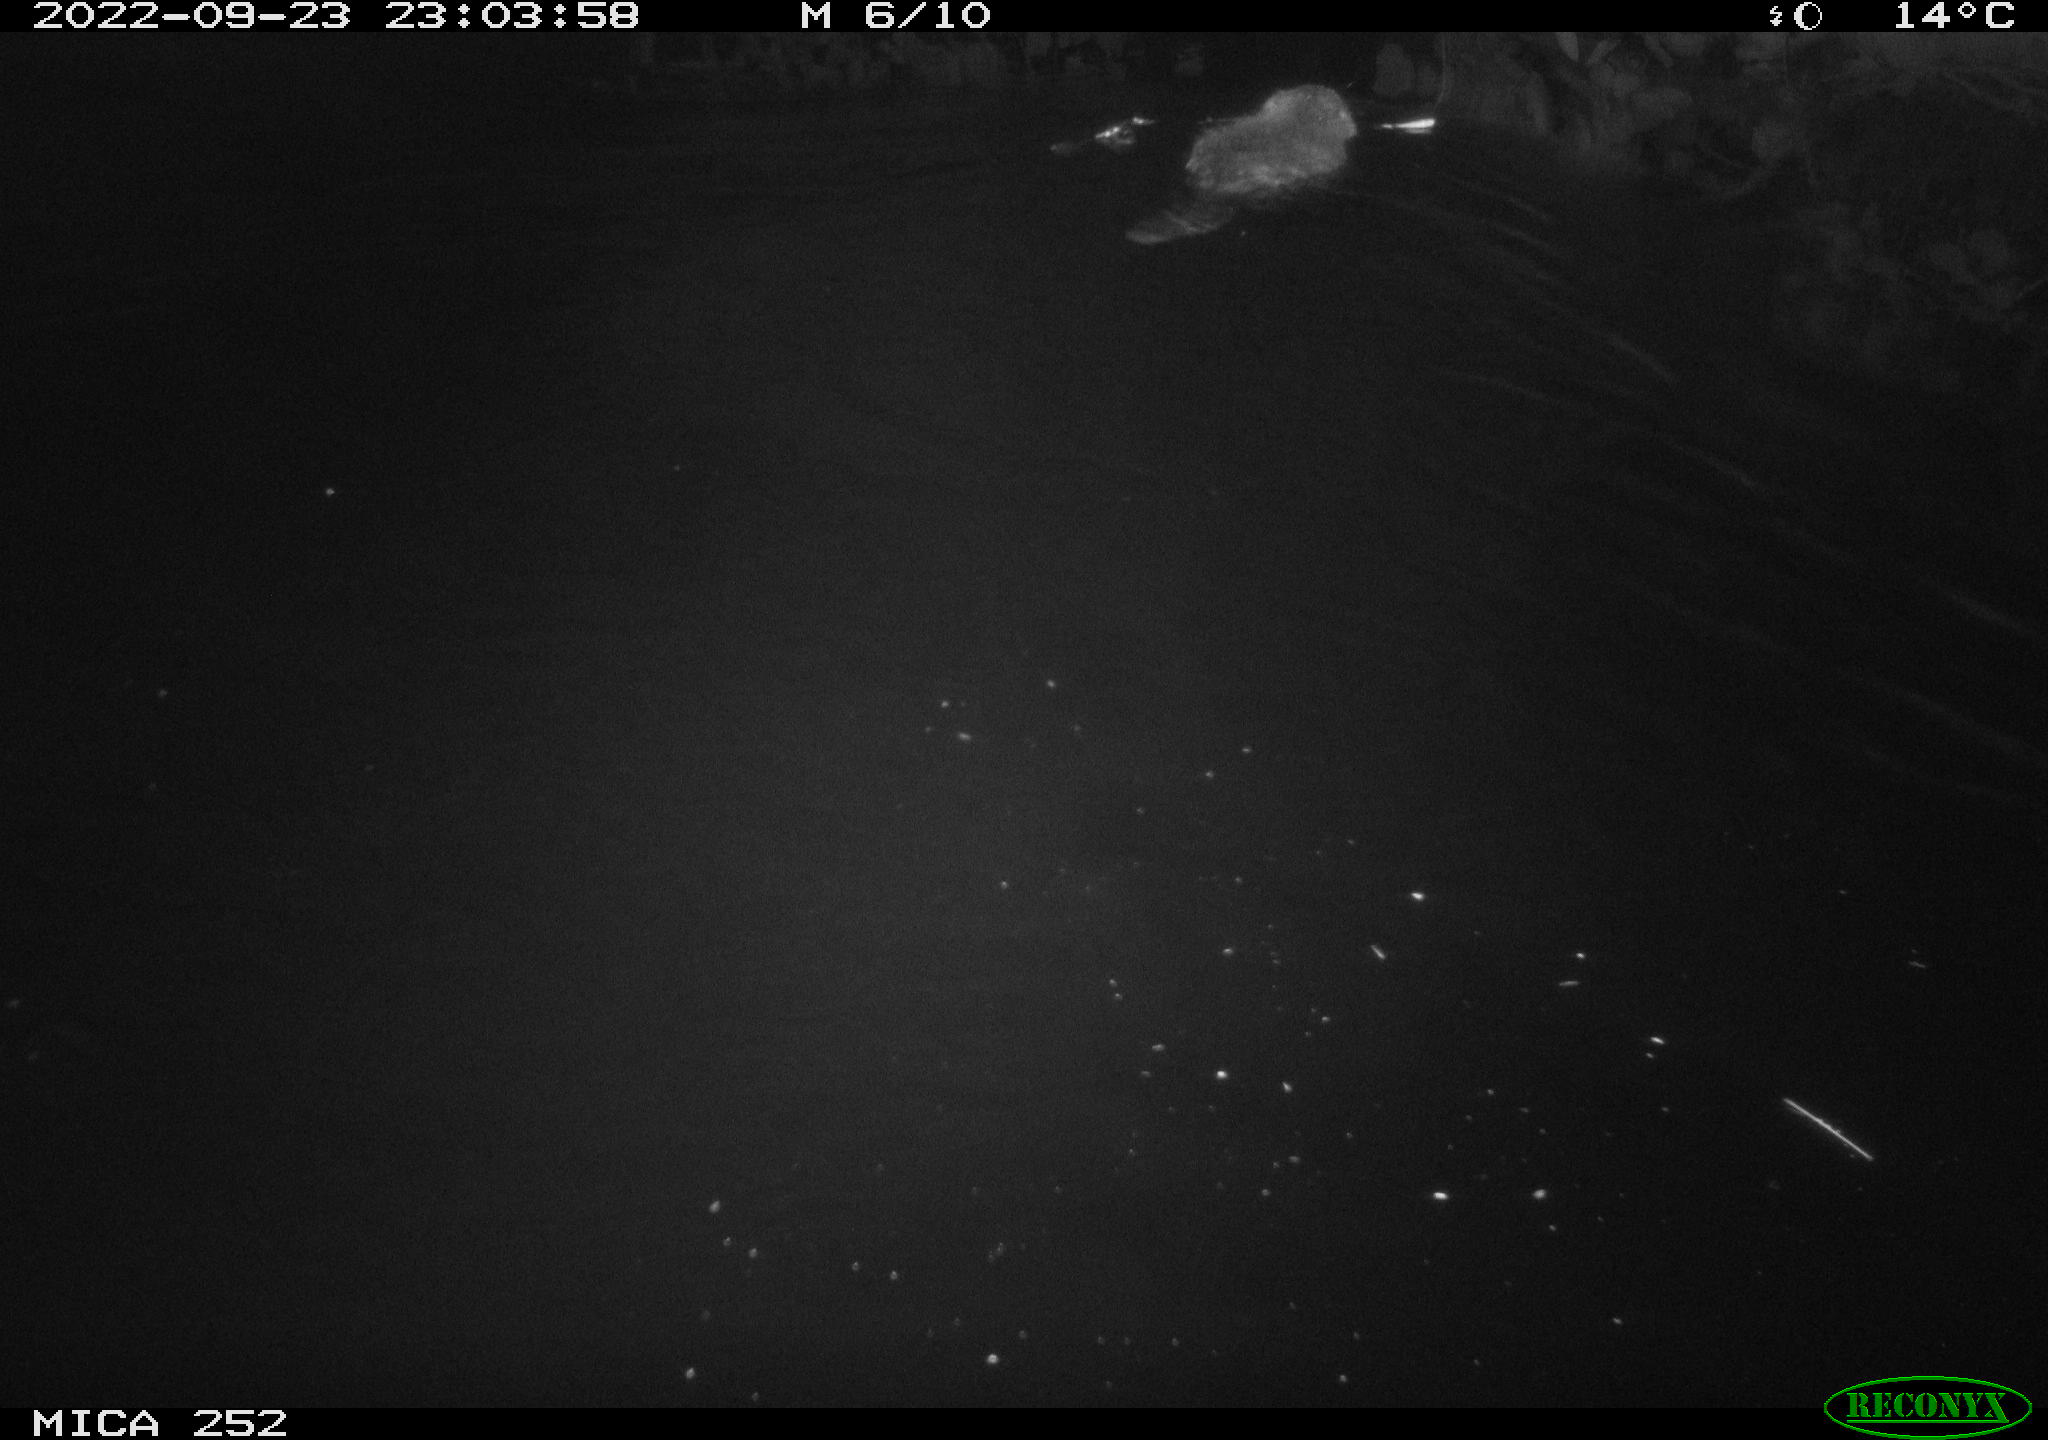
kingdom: Animalia
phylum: Chordata
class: Mammalia
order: Rodentia
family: Castoridae
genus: Castor
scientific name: Castor fiber
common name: Eurasian beaver
